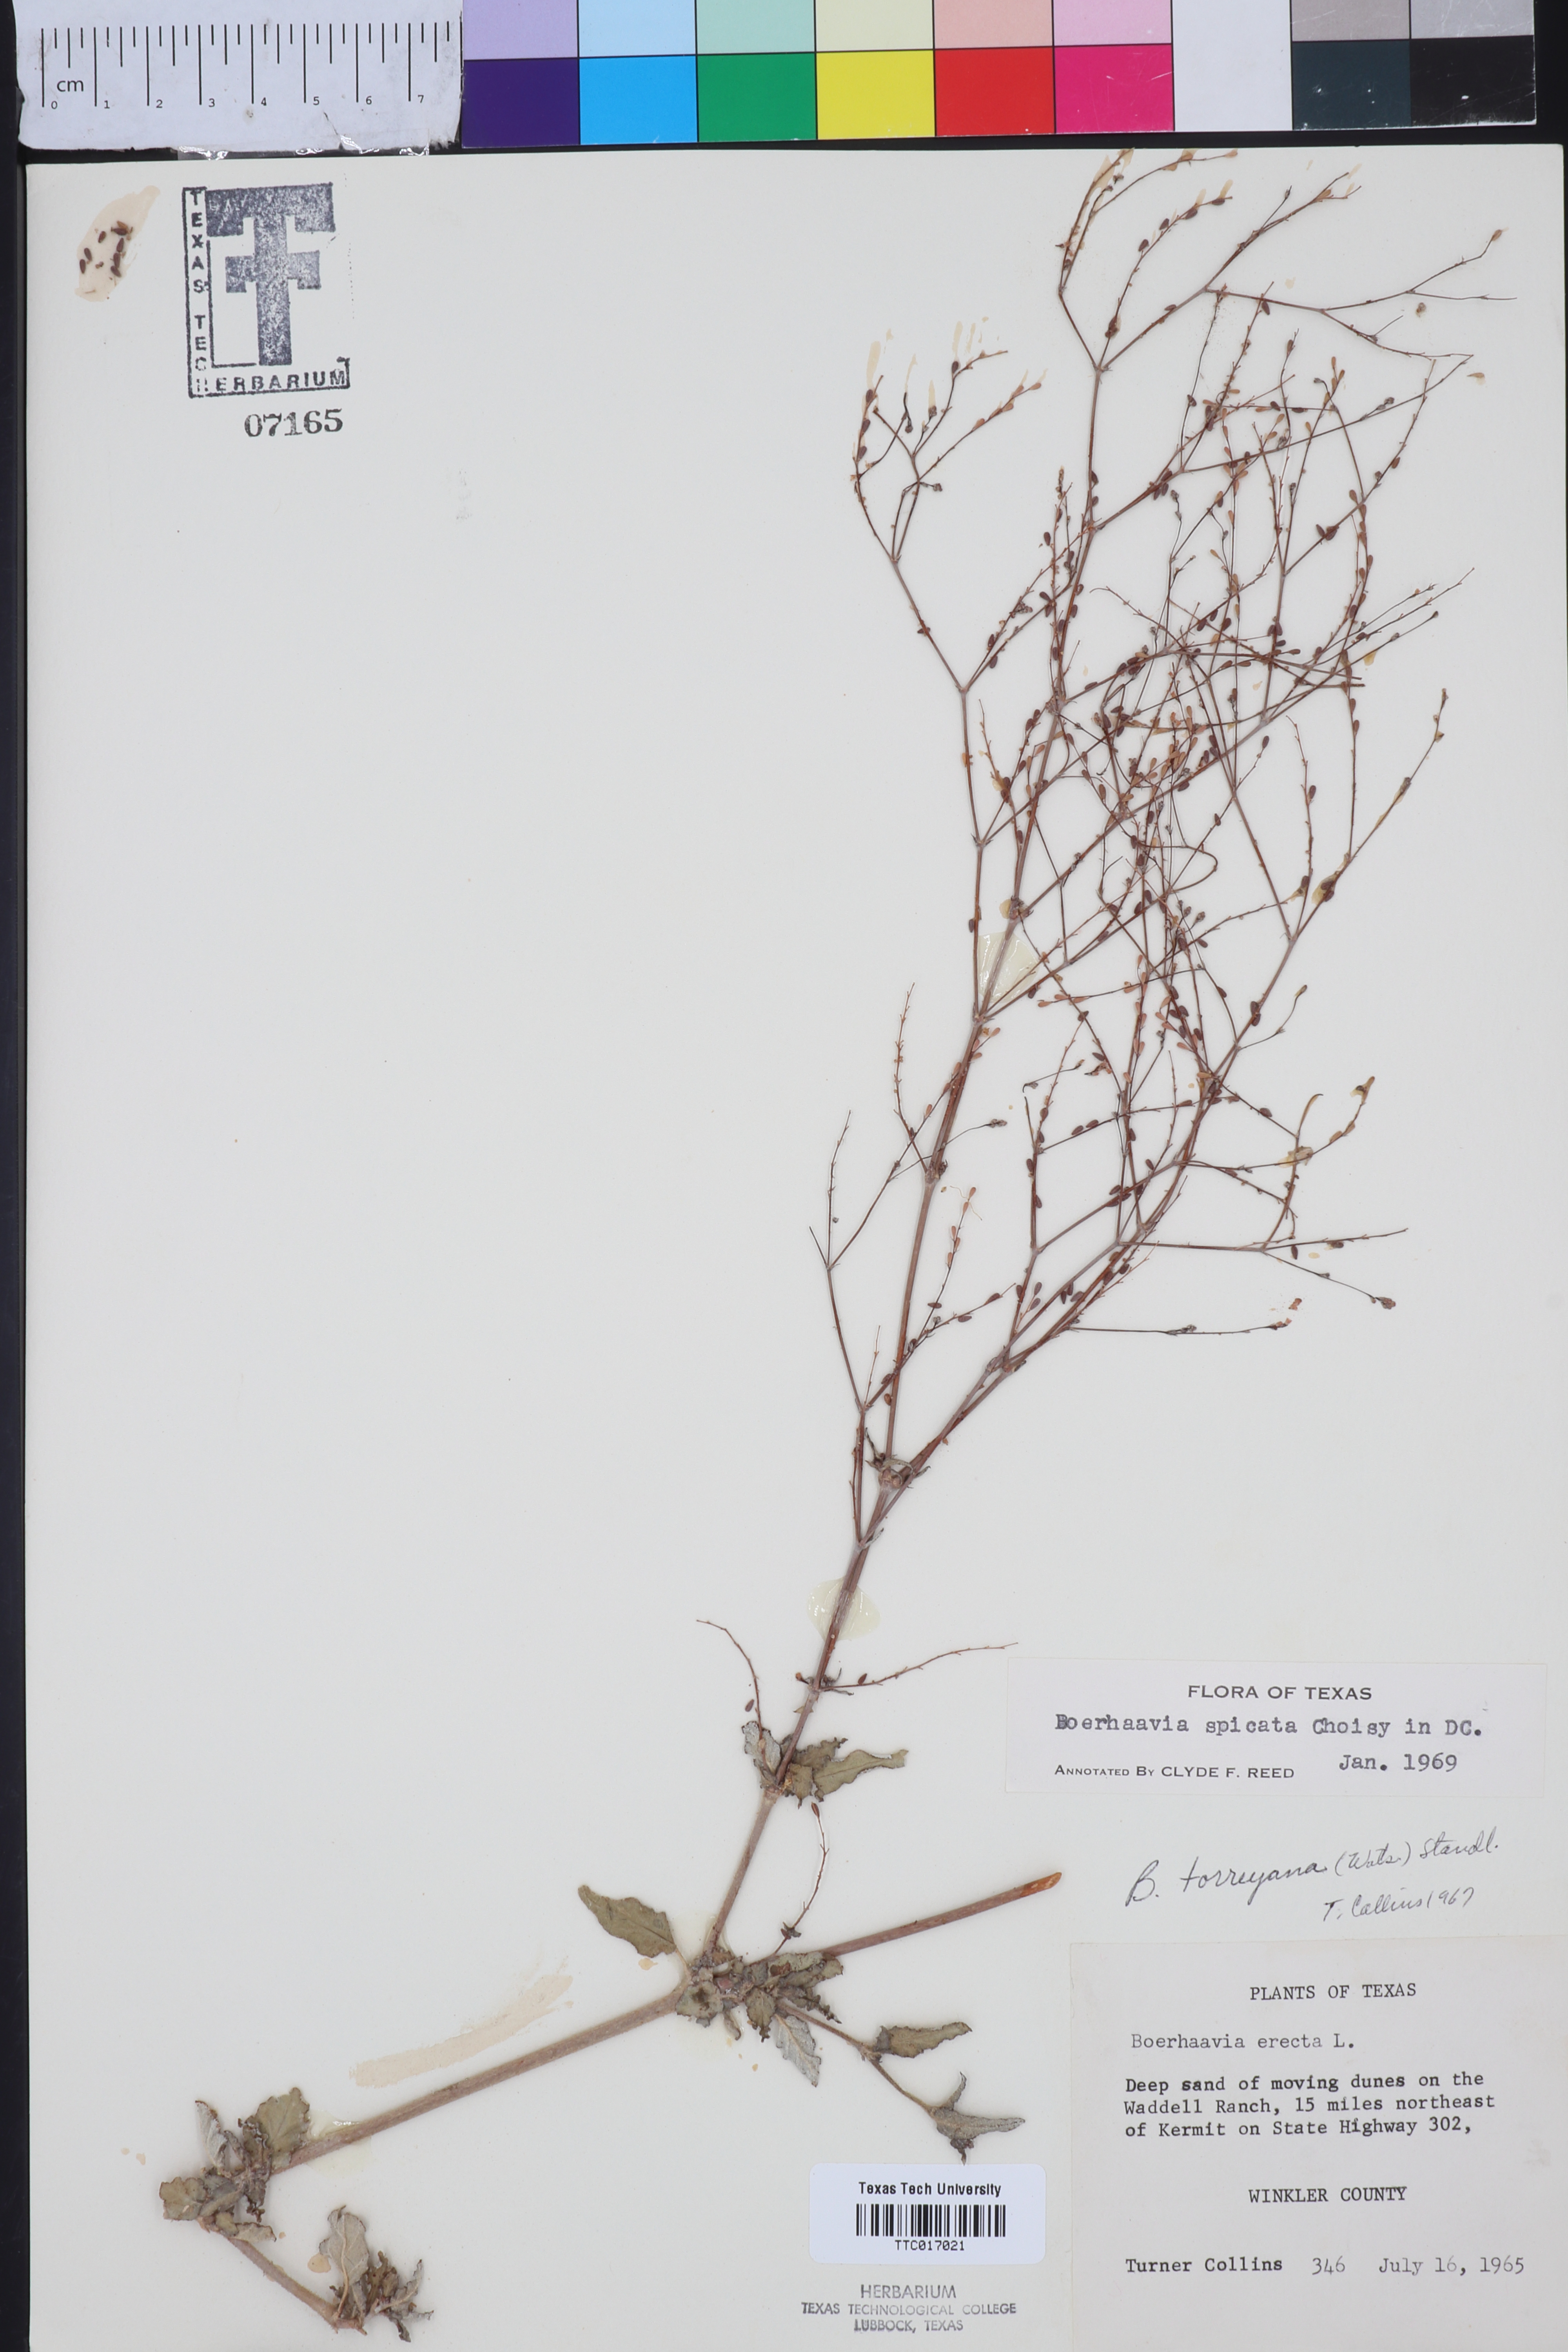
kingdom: Plantae
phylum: Tracheophyta
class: Magnoliopsida
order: Caryophyllales
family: Nyctaginaceae
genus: Boerhavia
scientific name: Boerhavia spicata
